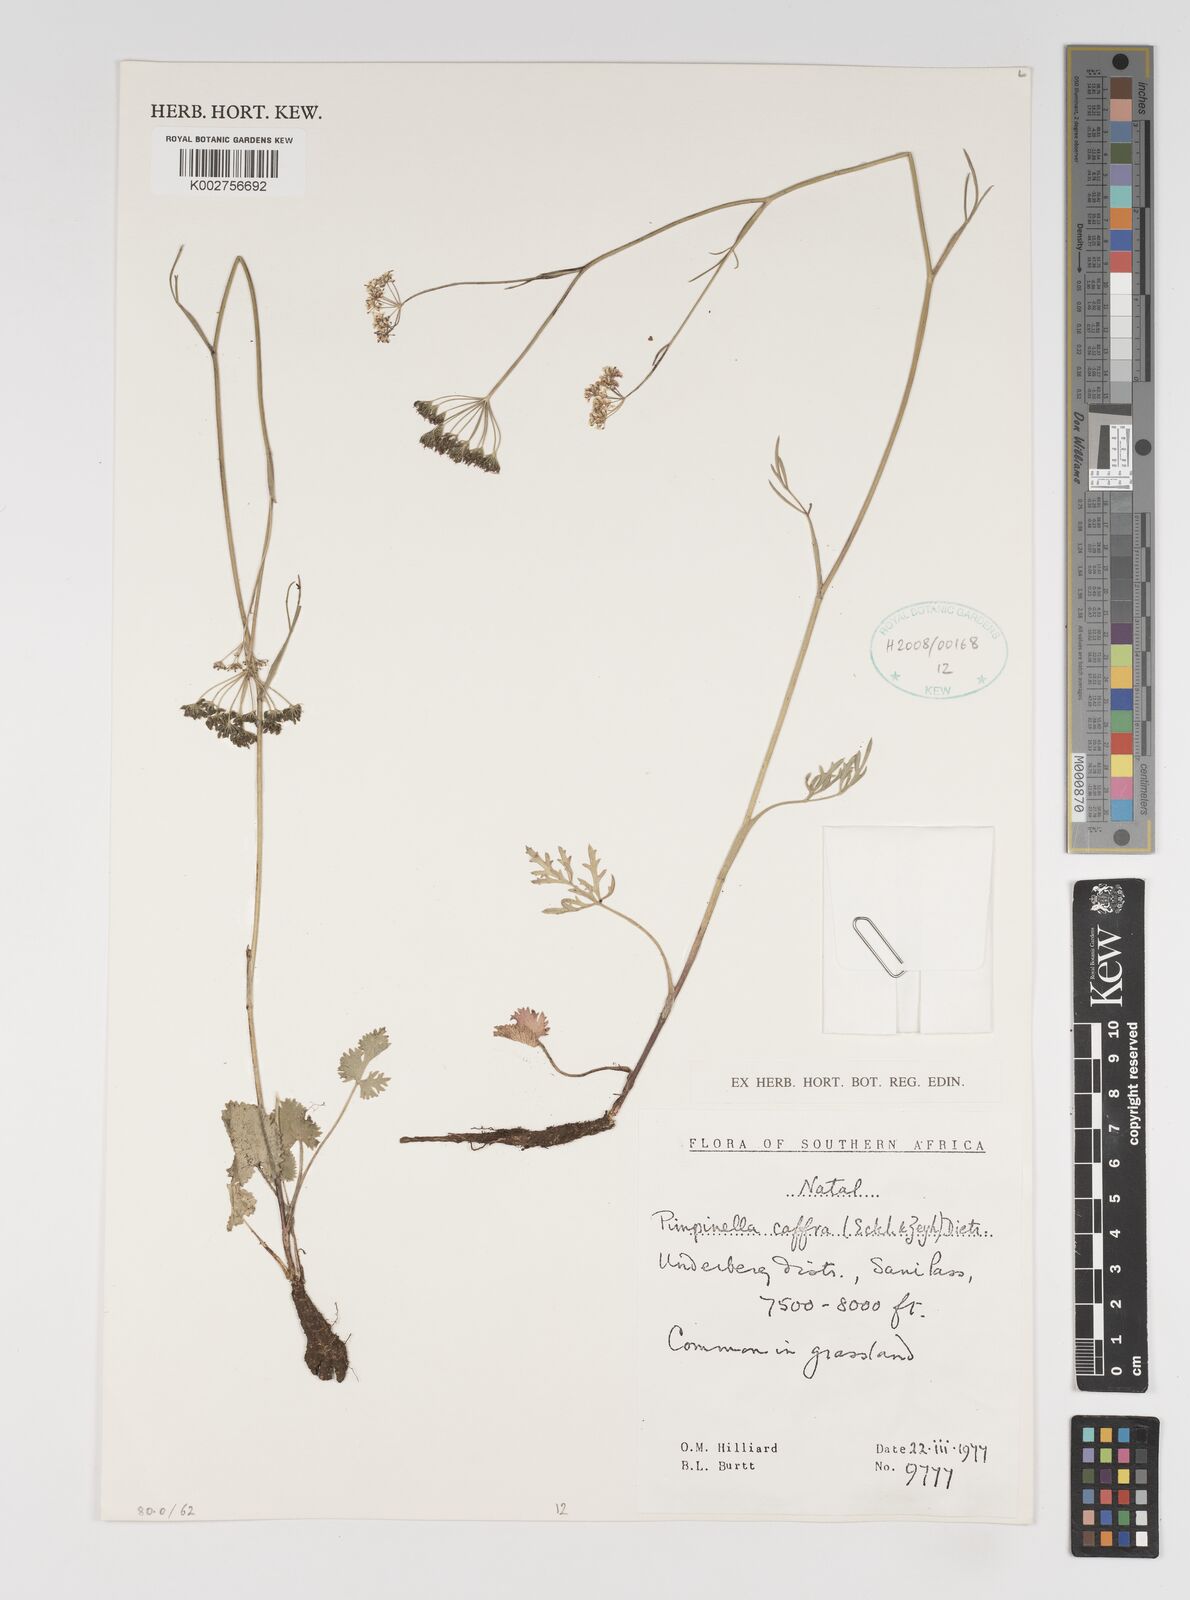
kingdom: Plantae
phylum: Tracheophyta
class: Magnoliopsida
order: Apiales
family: Apiaceae
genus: Pimpinella
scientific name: Pimpinella
